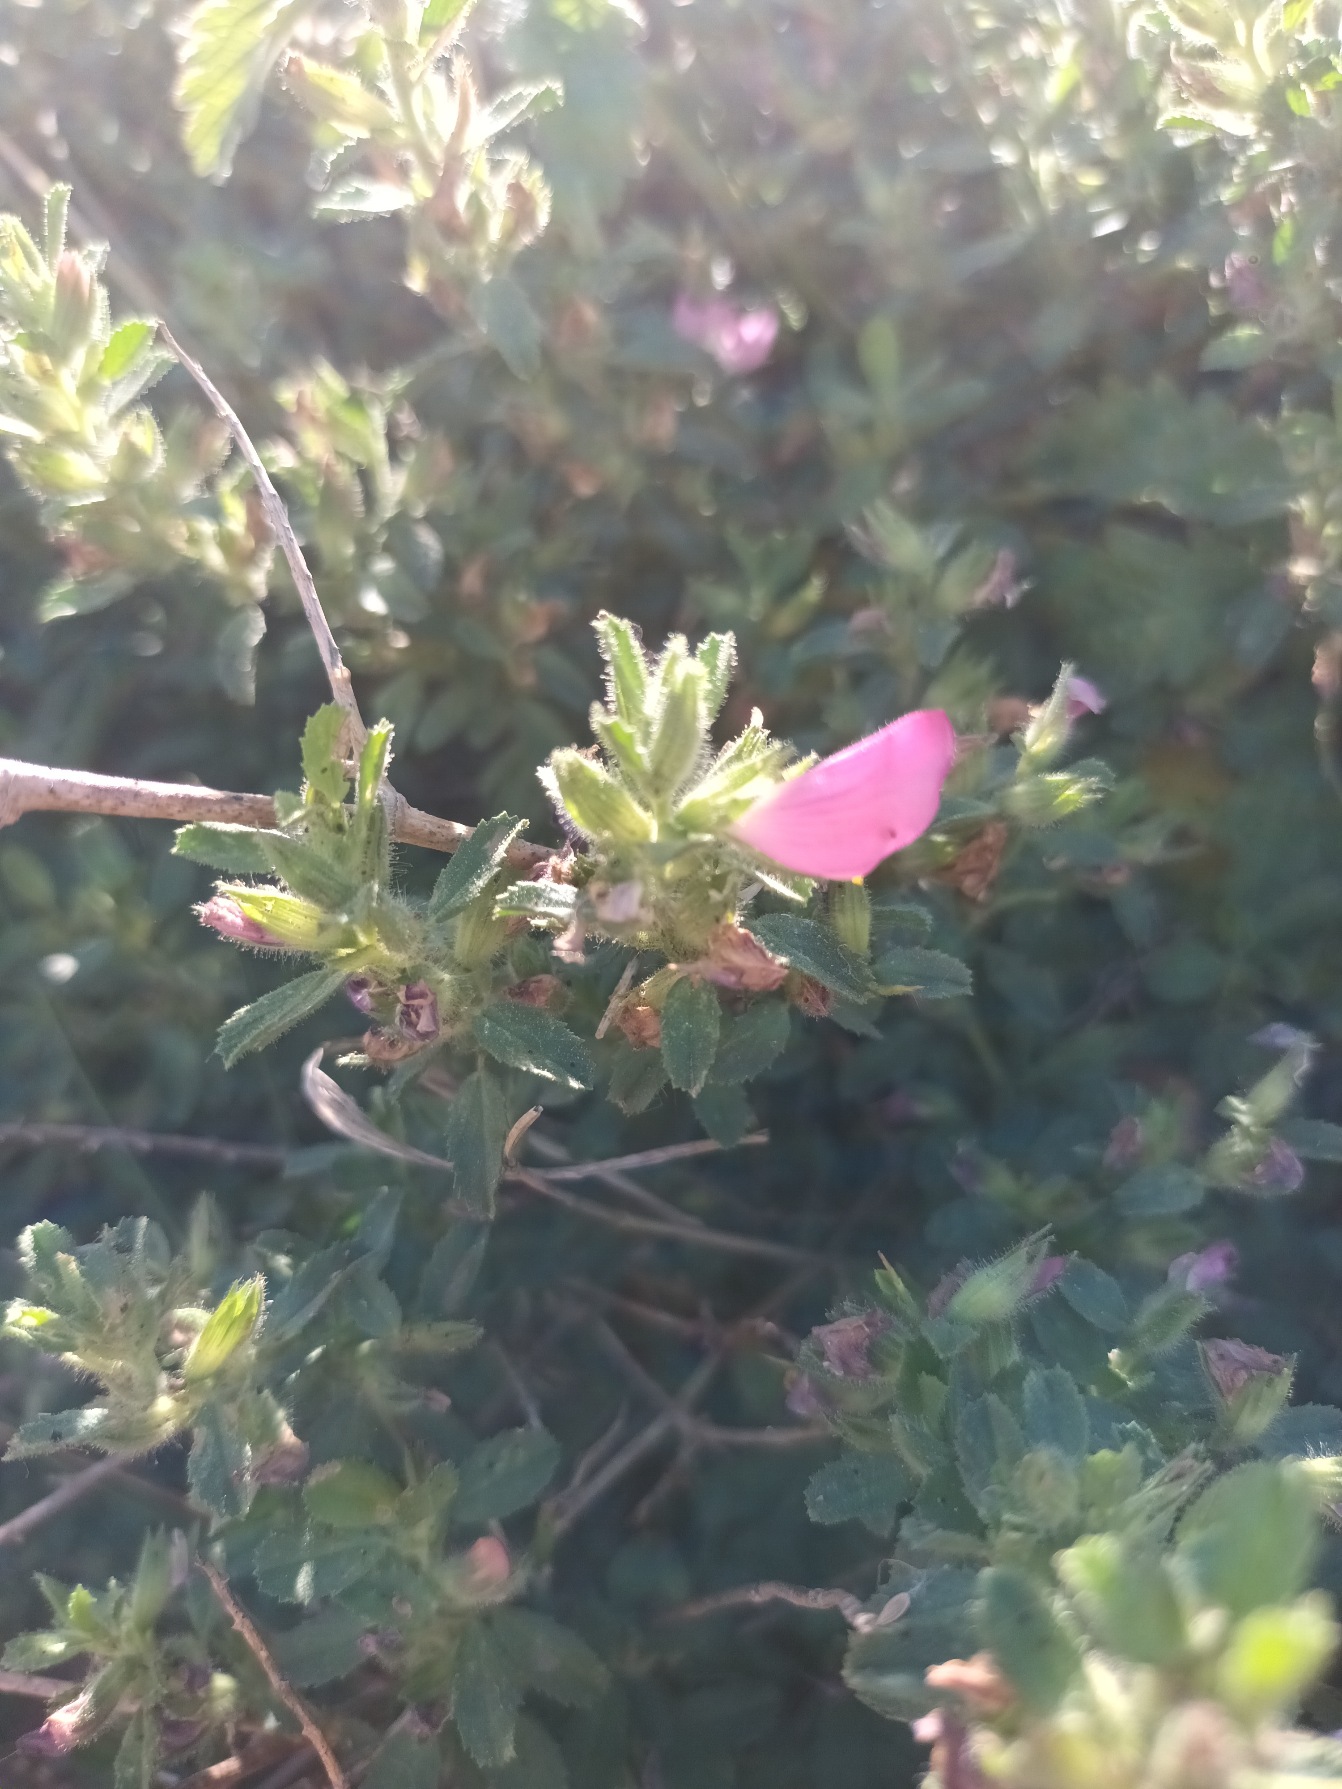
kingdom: Plantae
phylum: Tracheophyta
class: Magnoliopsida
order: Fabales
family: Fabaceae
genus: Ononis
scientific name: Ononis spinosa
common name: Mark-krageklo
